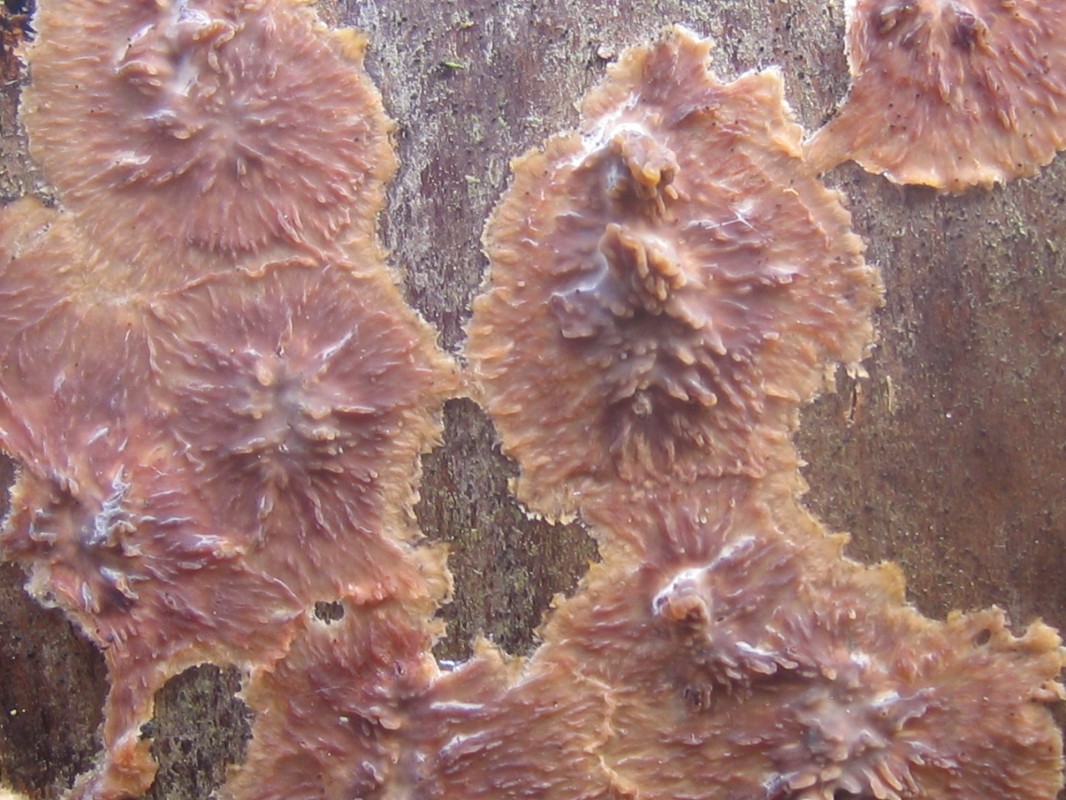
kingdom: Fungi
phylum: Basidiomycota
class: Agaricomycetes
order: Polyporales
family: Meruliaceae
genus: Phlebia
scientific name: Phlebia radiata
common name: stråle-åresvamp
